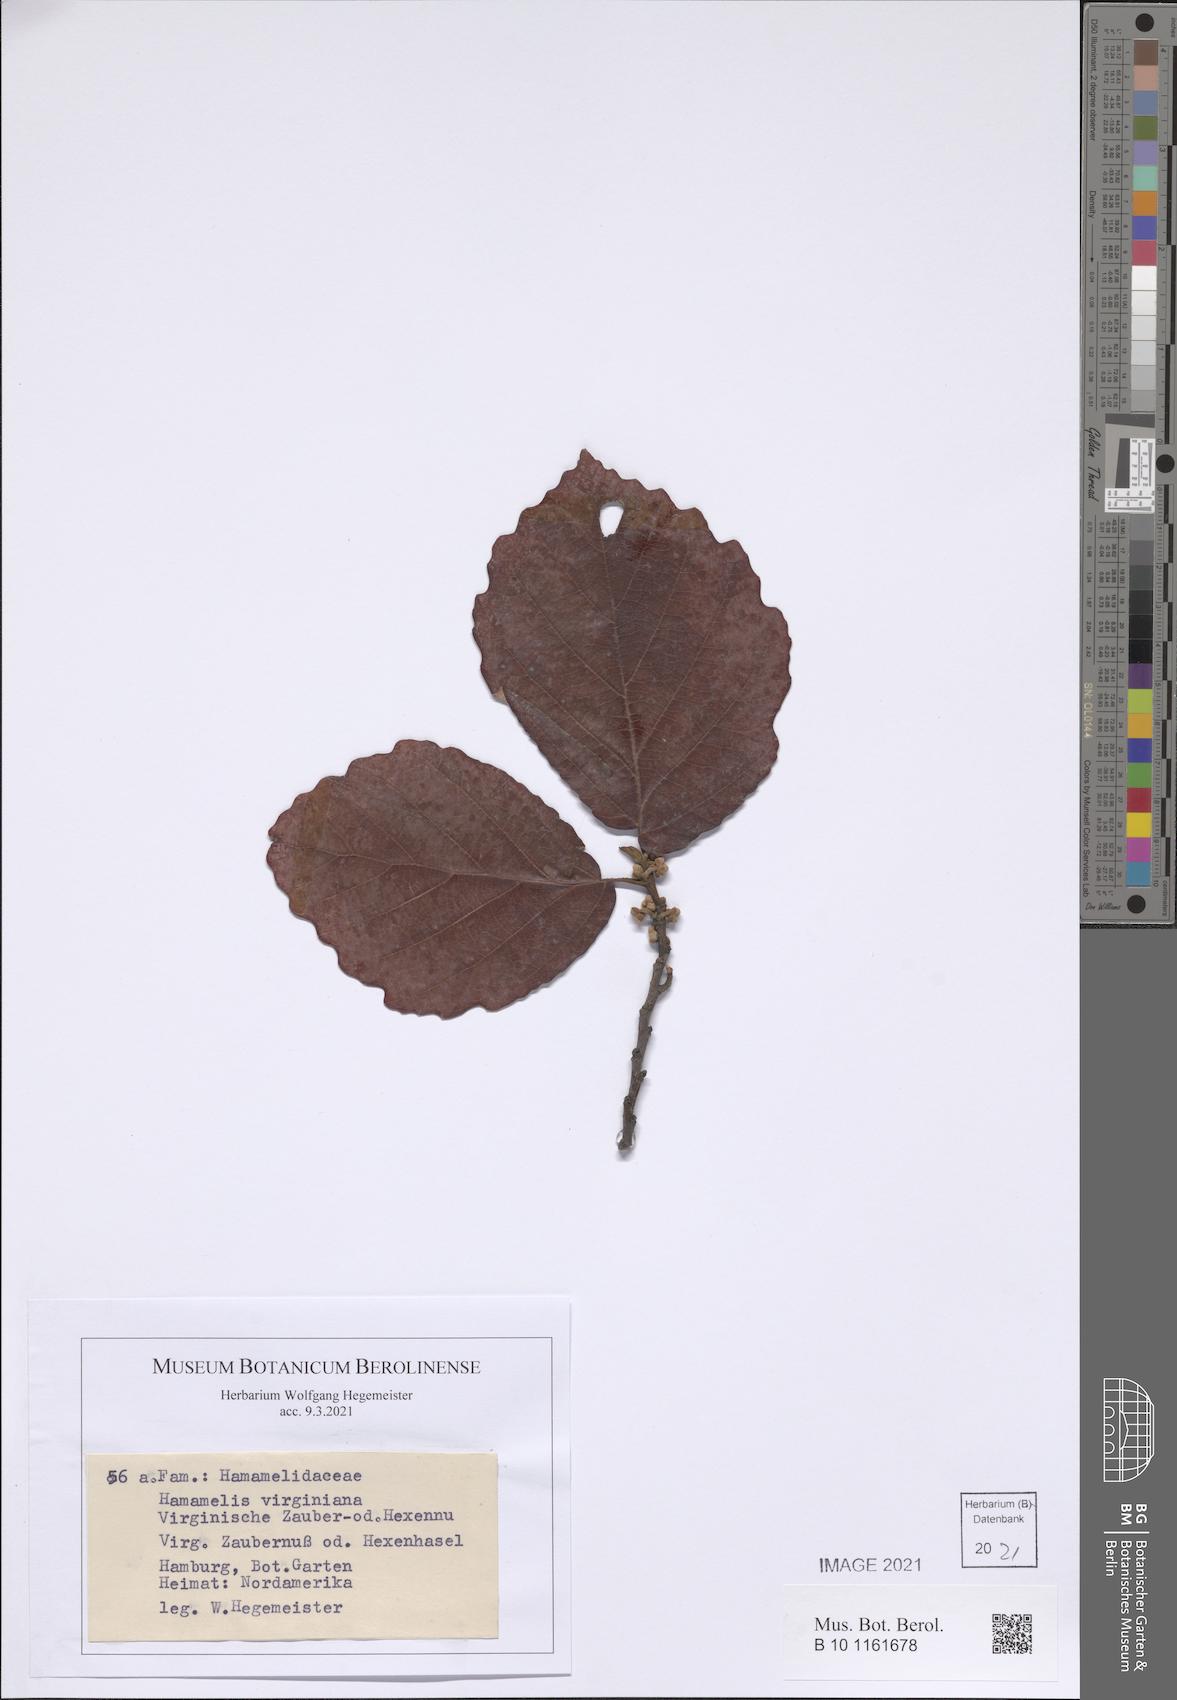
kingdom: Plantae
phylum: Tracheophyta
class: Magnoliopsida
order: Saxifragales
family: Hamamelidaceae
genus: Hamamelis
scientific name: Hamamelis virginiana
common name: Witch-hazel
